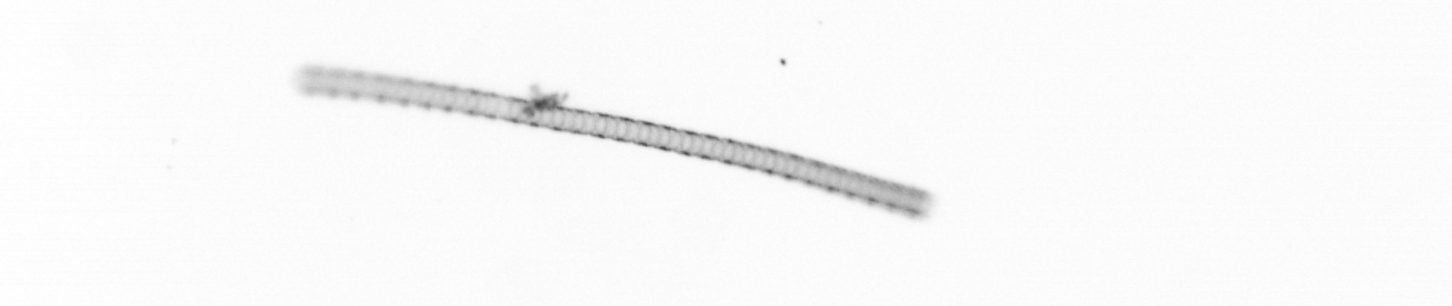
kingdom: Chromista
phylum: Ochrophyta
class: Bacillariophyceae
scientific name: Bacillariophyceae
